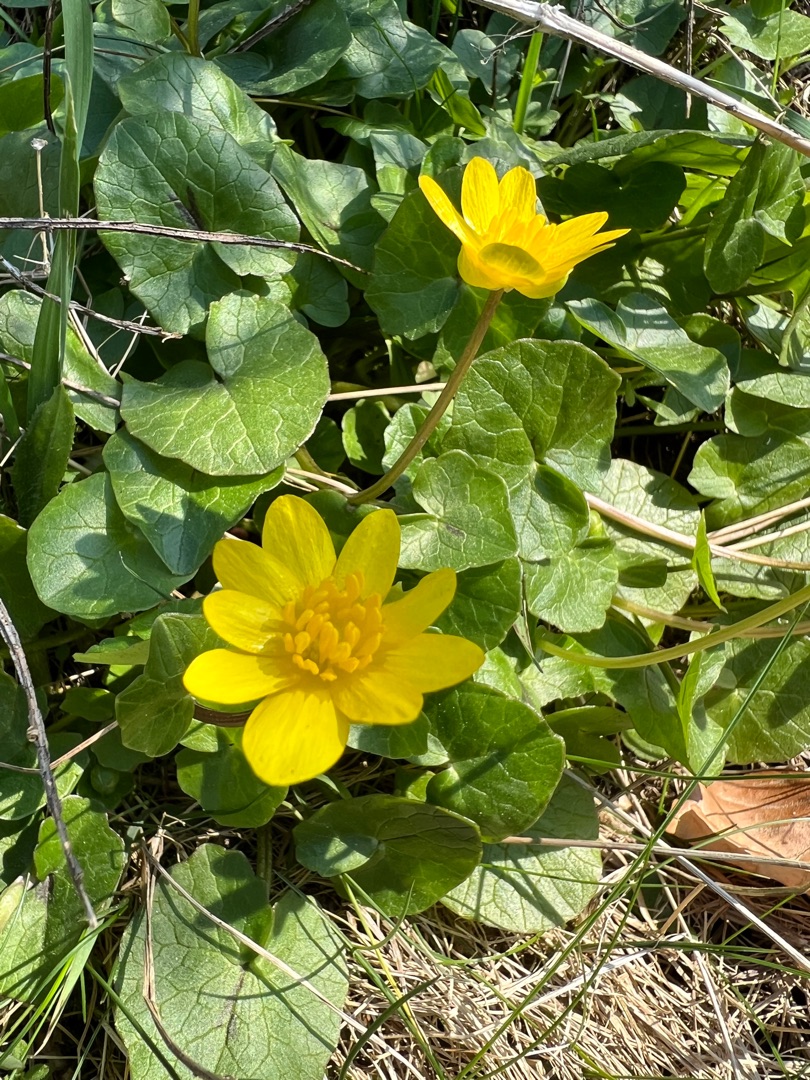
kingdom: Plantae
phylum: Tracheophyta
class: Magnoliopsida
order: Ranunculales
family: Ranunculaceae
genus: Ficaria
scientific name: Ficaria verna
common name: Vorterod
